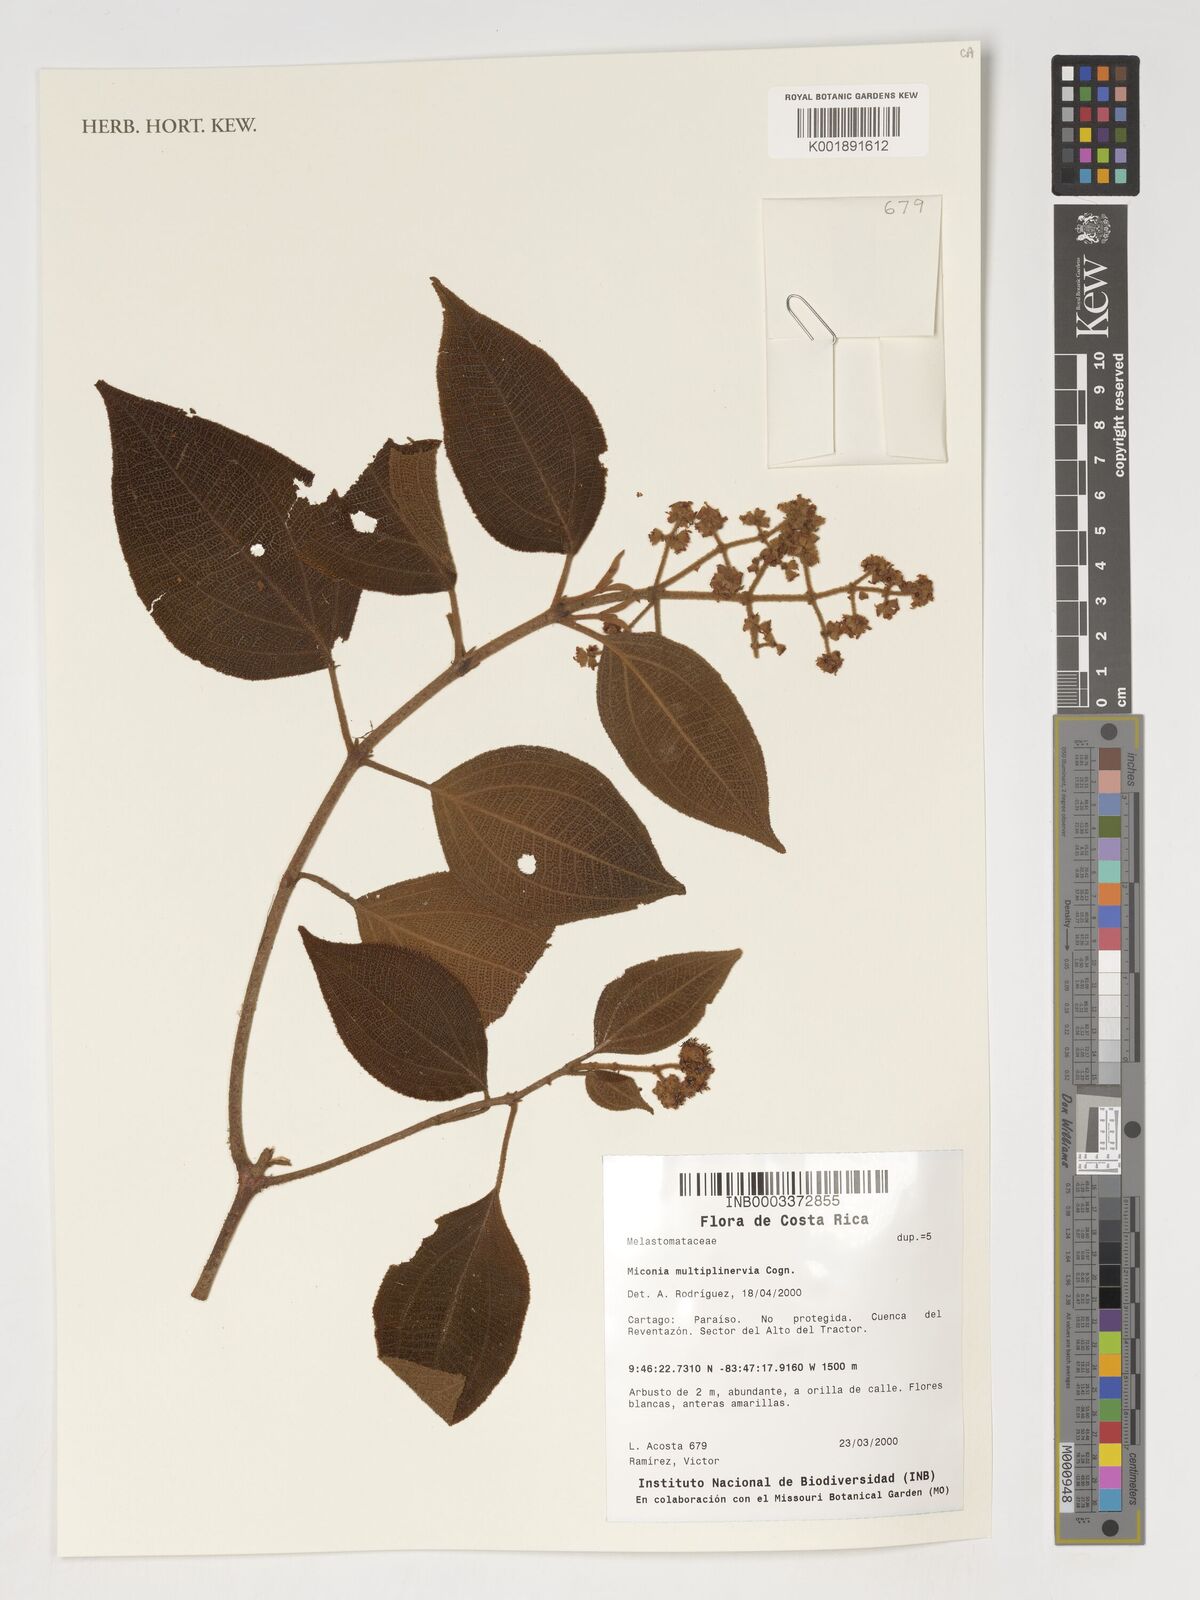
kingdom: Plantae
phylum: Tracheophyta
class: Magnoliopsida
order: Myrtales
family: Melastomataceae
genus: Miconia
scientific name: Miconia multiplinervia
